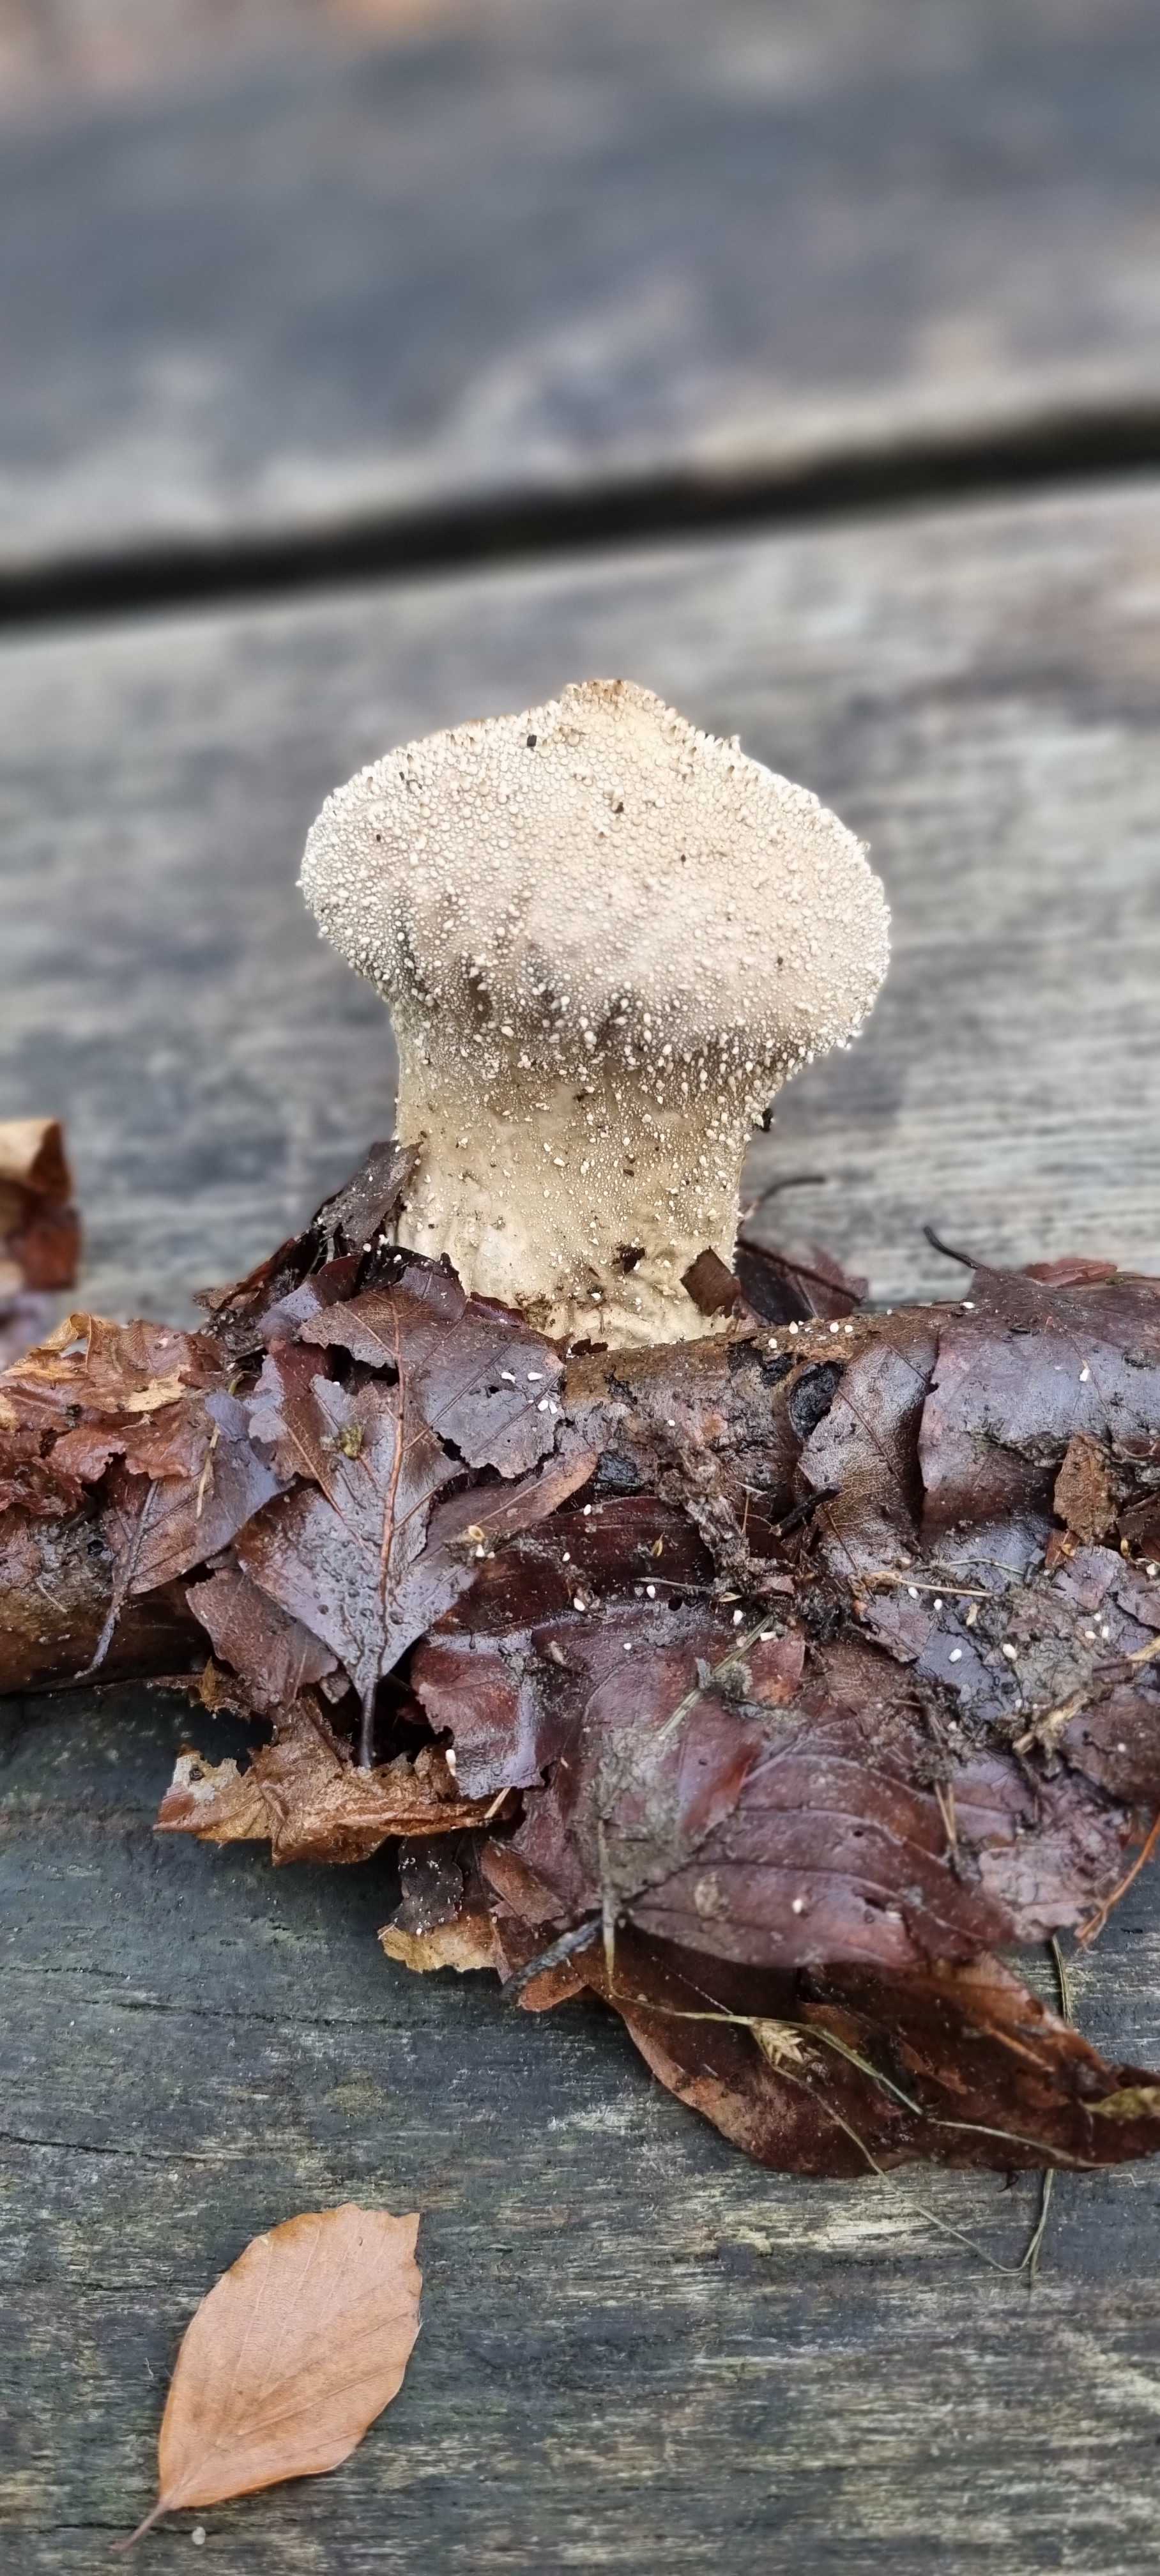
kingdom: Fungi
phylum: Basidiomycota
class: Agaricomycetes
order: Agaricales
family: Lycoperdaceae
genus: Lycoperdon
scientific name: Lycoperdon perlatum
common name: krystal-støvbold
